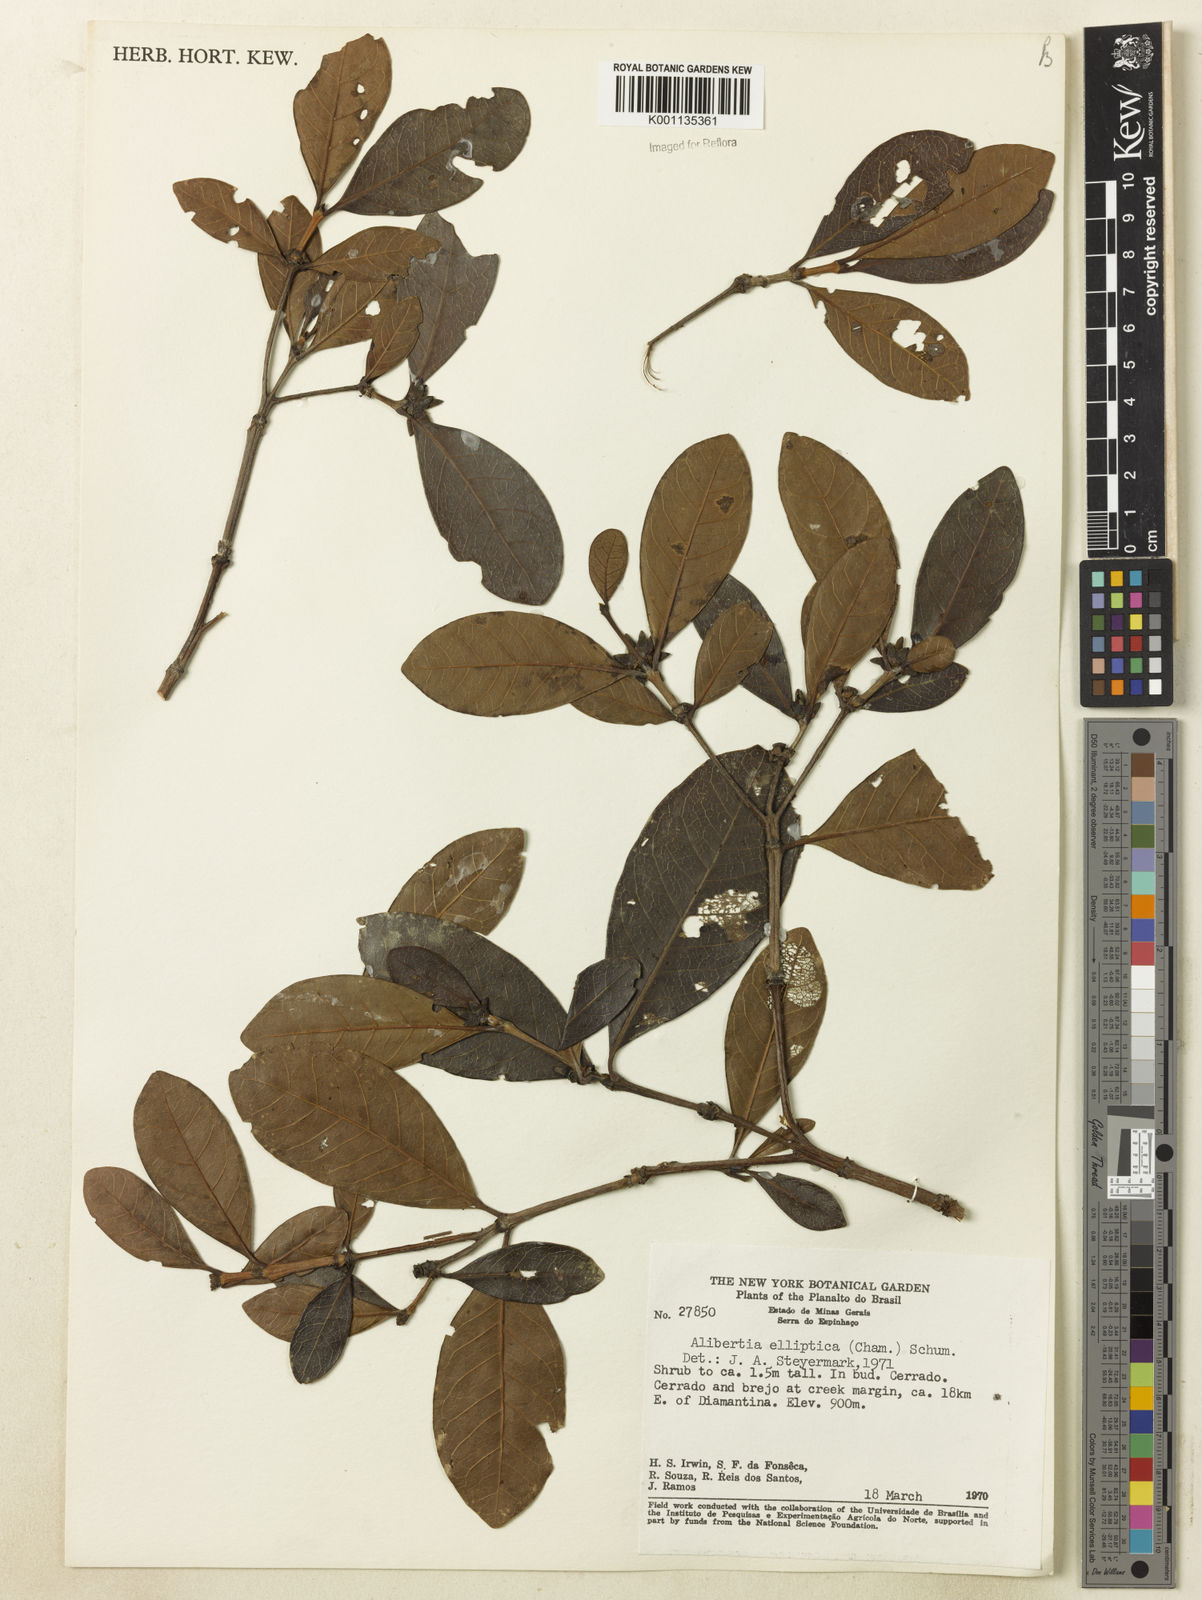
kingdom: Plantae
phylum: Tracheophyta
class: Magnoliopsida
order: Gentianales
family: Rubiaceae
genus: Cordiera
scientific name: Cordiera elliptica
